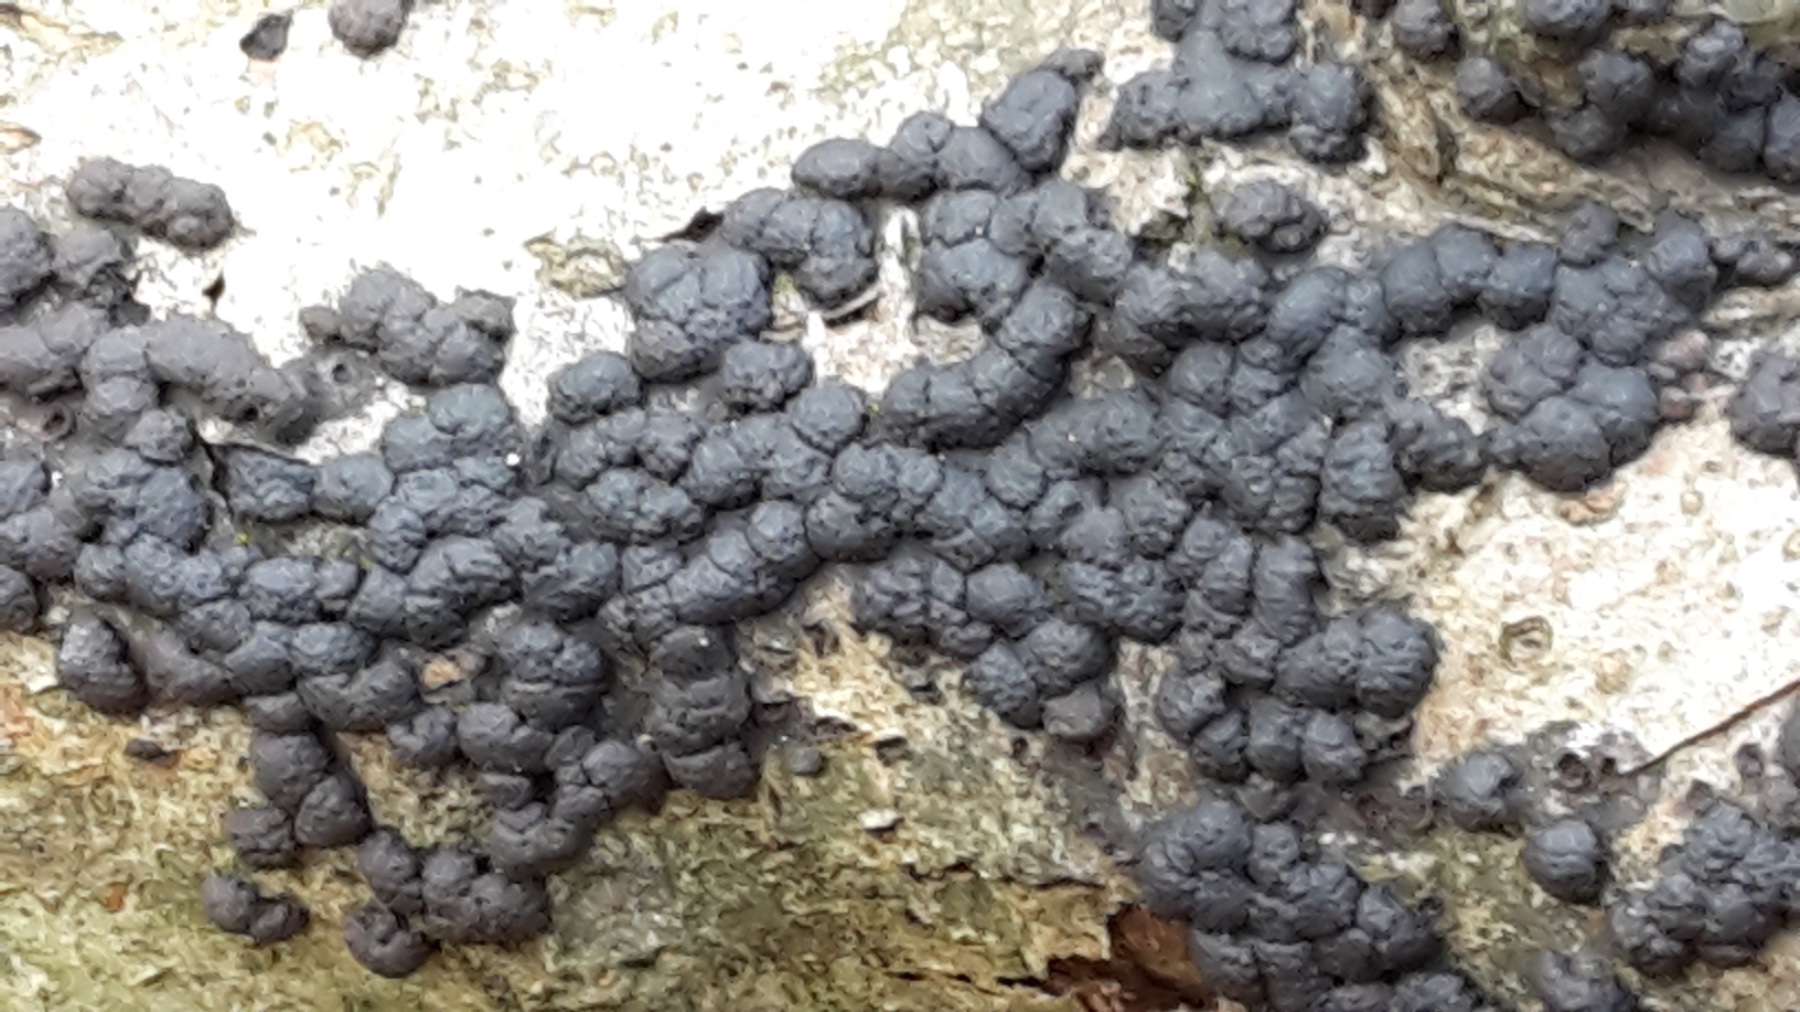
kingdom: Fungi
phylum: Ascomycota
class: Sordariomycetes
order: Xylariales
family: Hypoxylaceae
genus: Jackrogersella
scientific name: Jackrogersella cohaerens
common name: sammenflydende kulbær
